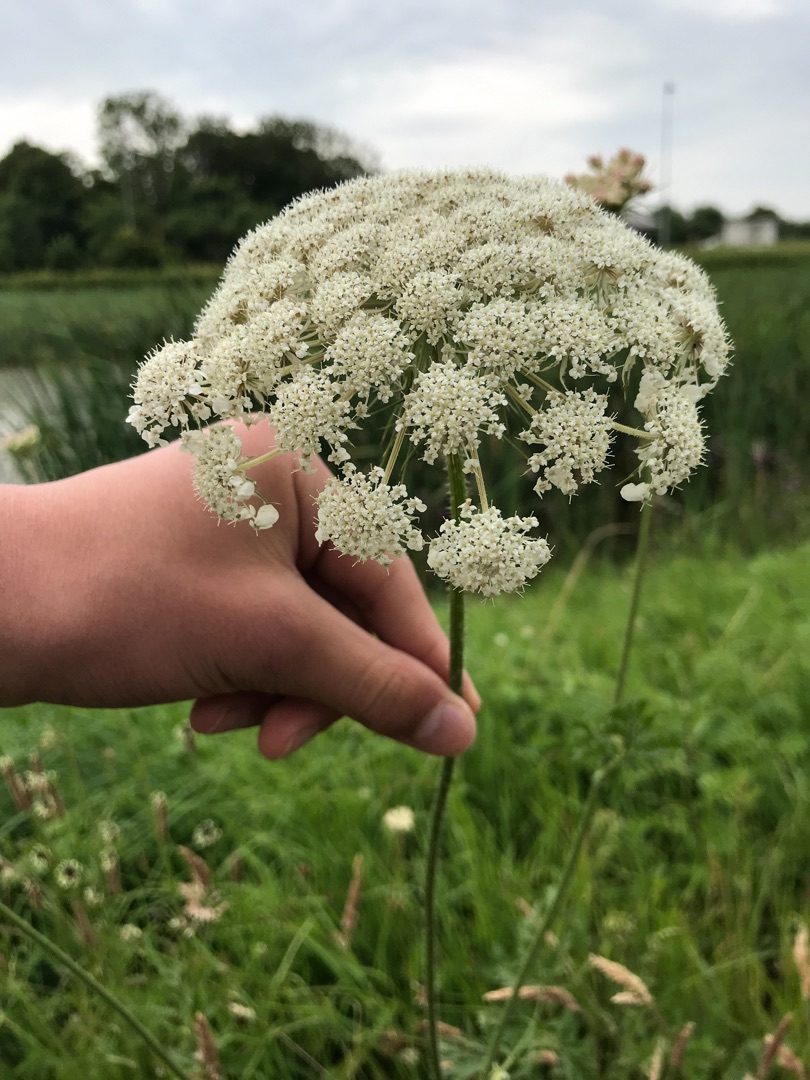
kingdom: Plantae
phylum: Tracheophyta
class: Magnoliopsida
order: Apiales
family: Apiaceae
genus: Daucus
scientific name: Daucus carota
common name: Gulerod
